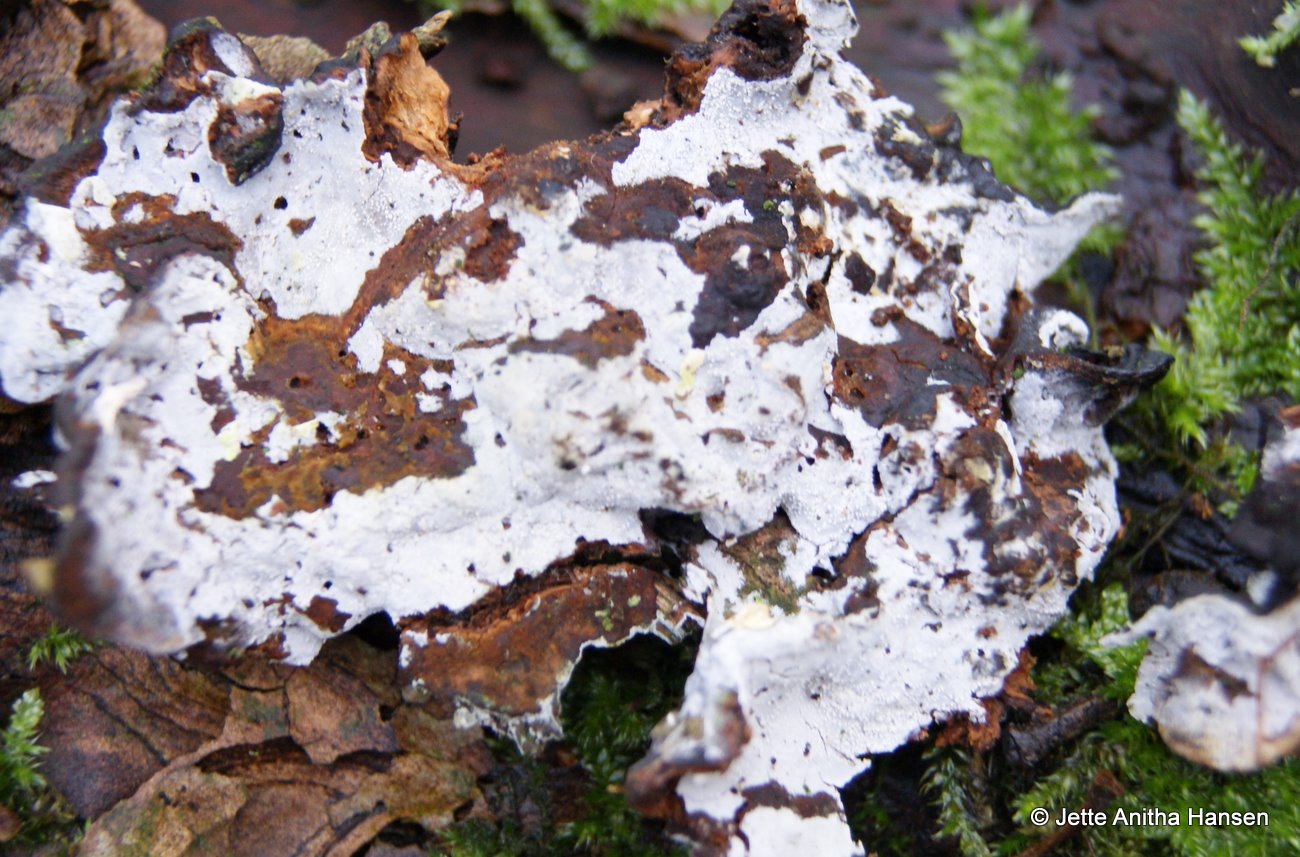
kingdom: Fungi
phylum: Basidiomycota
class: Agaricomycetes
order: Cantharellales
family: Hydnaceae
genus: Sistotrema
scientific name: Sistotrema brinkmannii
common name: bønnesporet kroneskorpe
